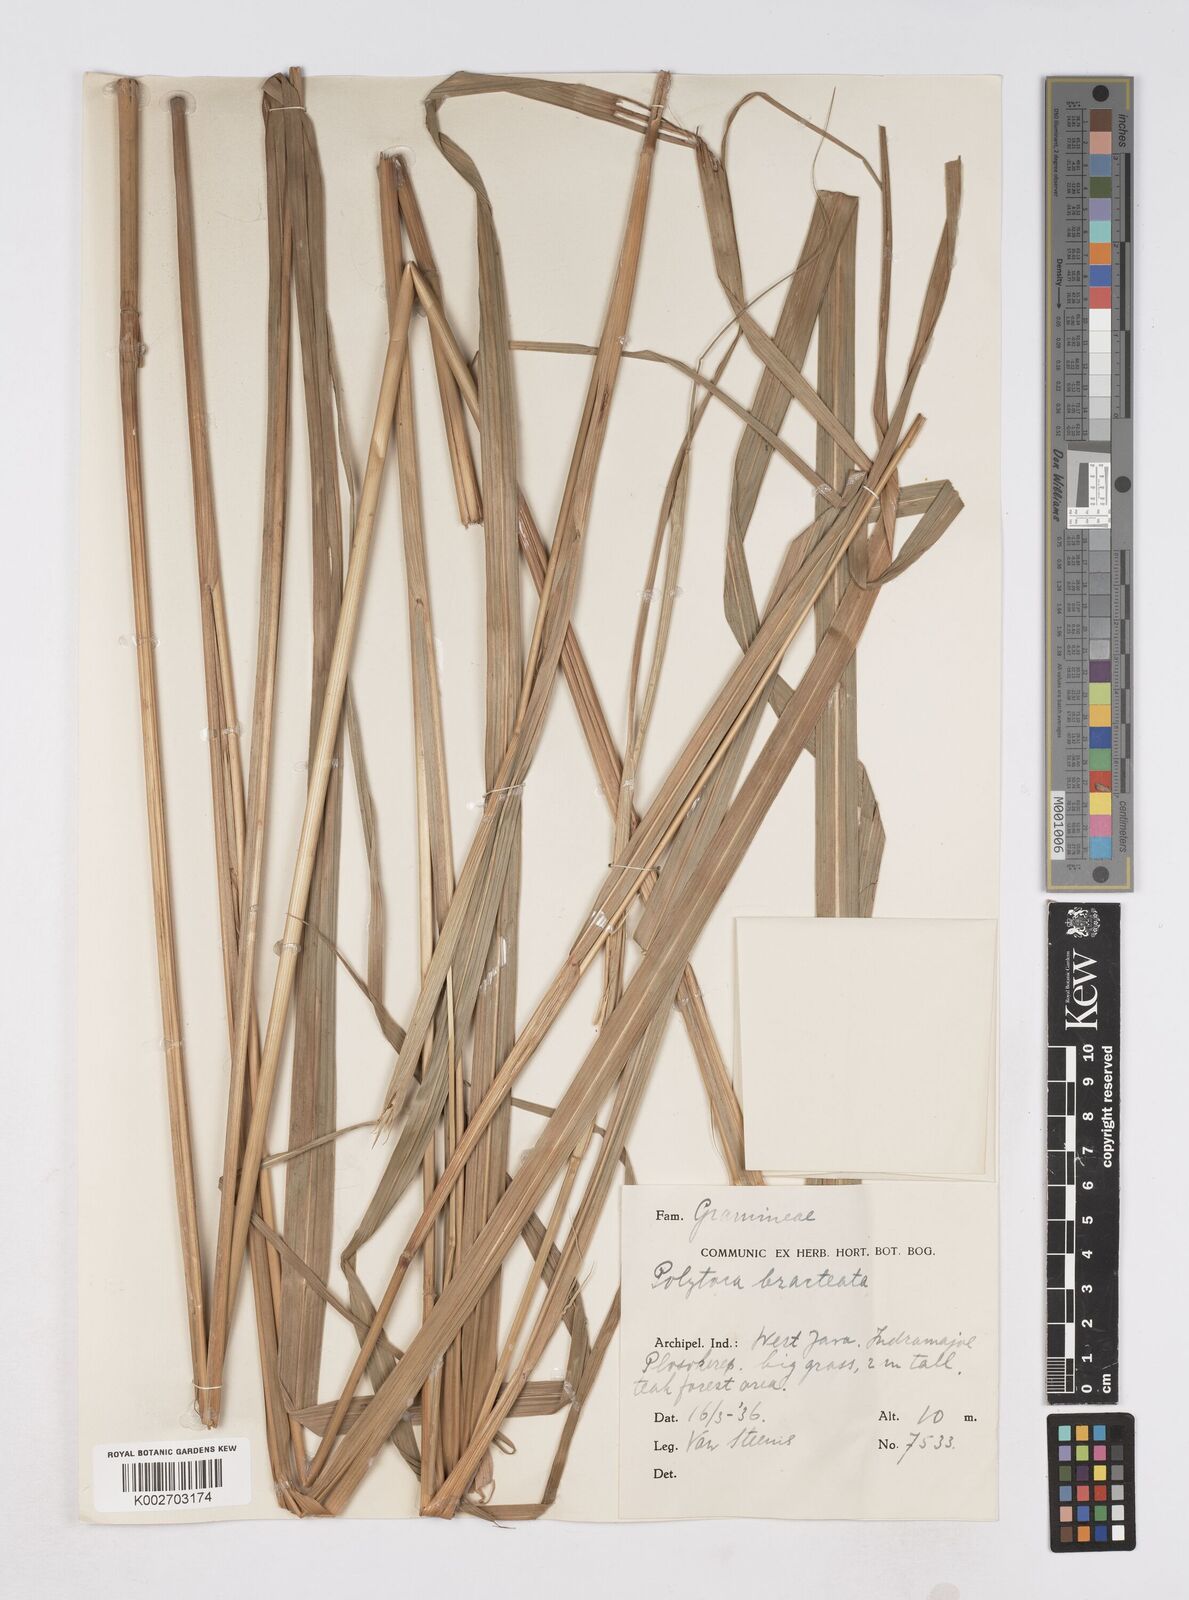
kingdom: Plantae
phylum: Tracheophyta
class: Liliopsida
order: Poales
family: Poaceae
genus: Polytoca
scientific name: Polytoca digitata
